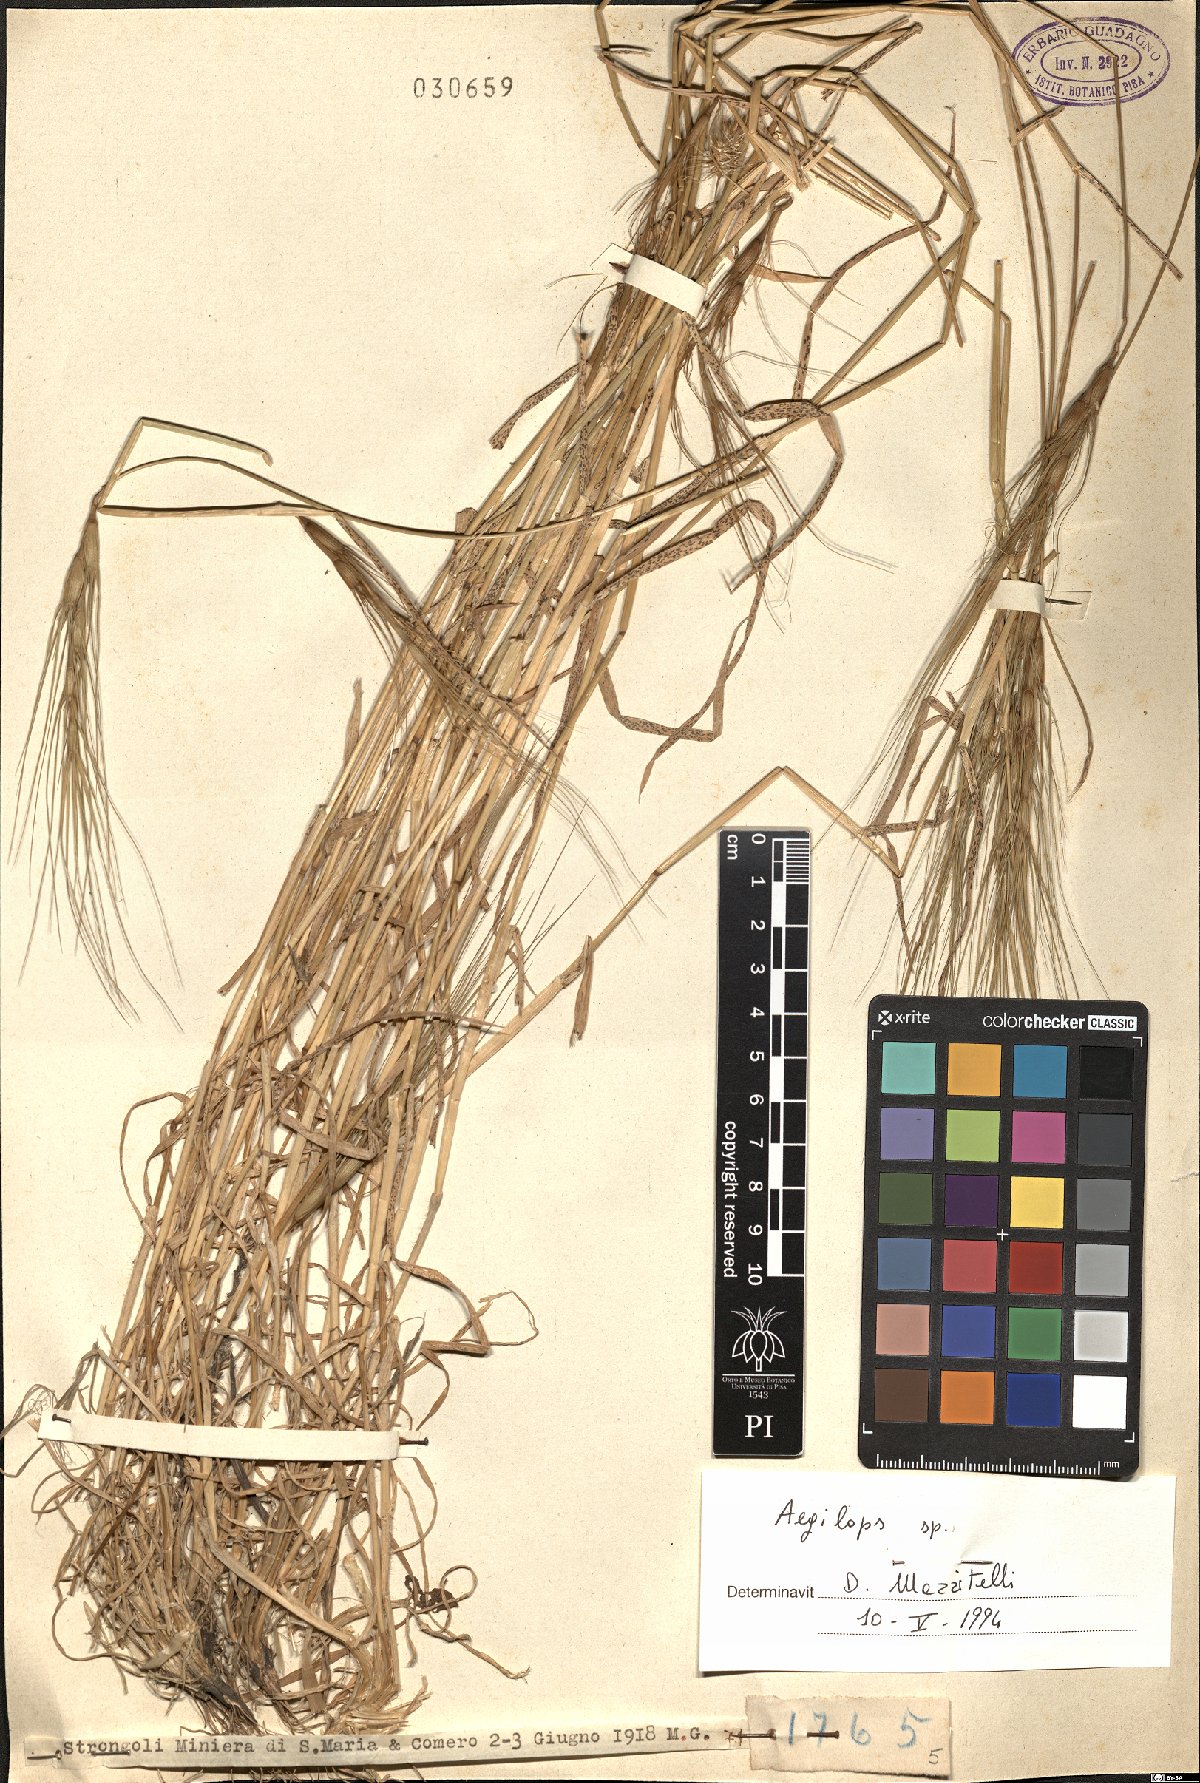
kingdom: Plantae
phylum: Tracheophyta
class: Liliopsida
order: Poales
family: Poaceae
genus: Aegilops
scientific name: Aegilops
